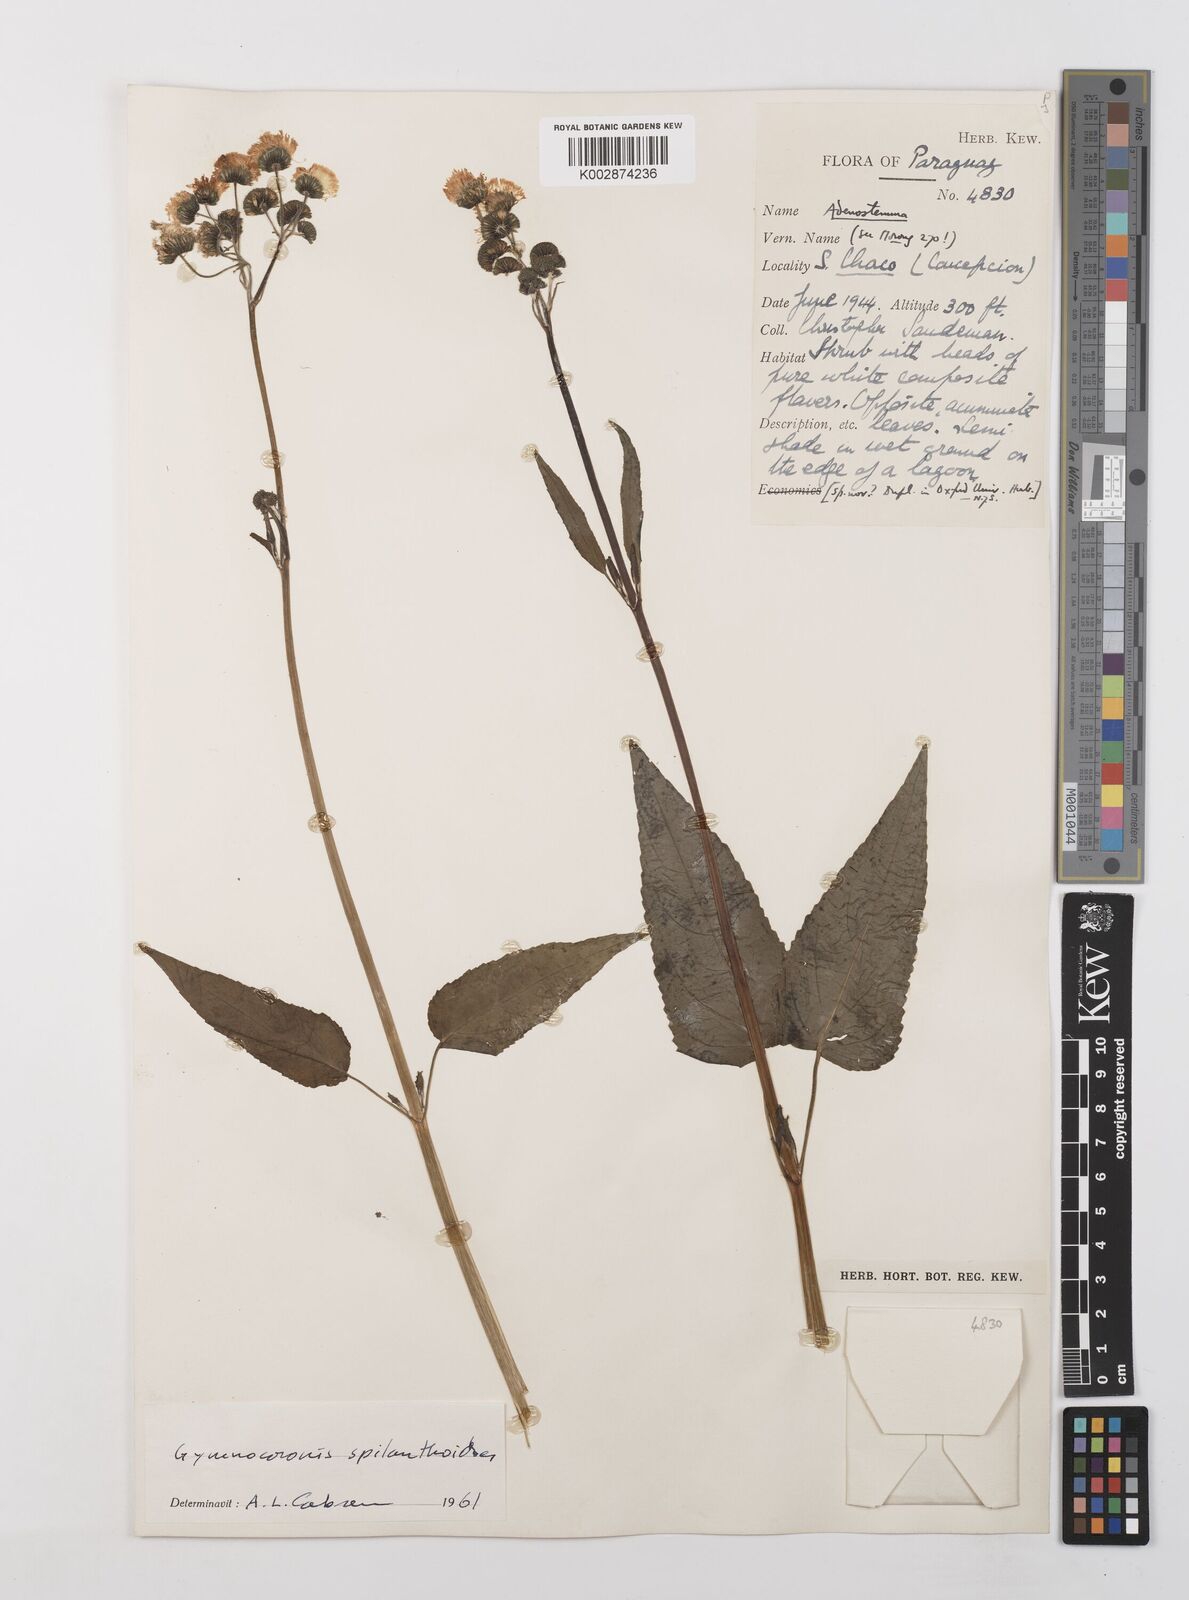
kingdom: Plantae
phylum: Tracheophyta
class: Magnoliopsida
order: Asterales
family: Asteraceae
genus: Gymnocoronis
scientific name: Gymnocoronis spilanthoides
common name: Senegal teaplant
